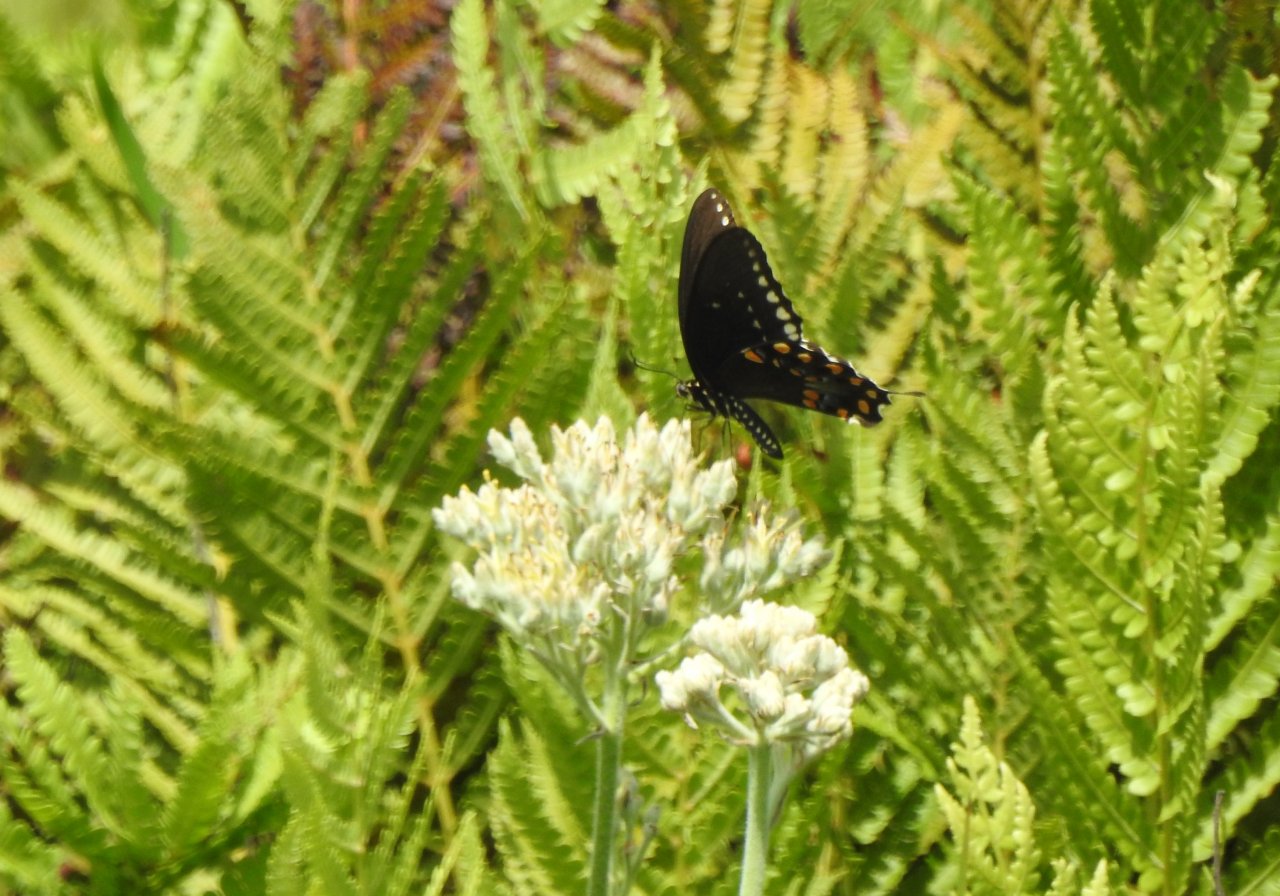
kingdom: Animalia
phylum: Arthropoda
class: Insecta
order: Lepidoptera
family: Papilionidae
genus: Pterourus
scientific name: Pterourus troilus
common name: Spicebush Swallowtail
